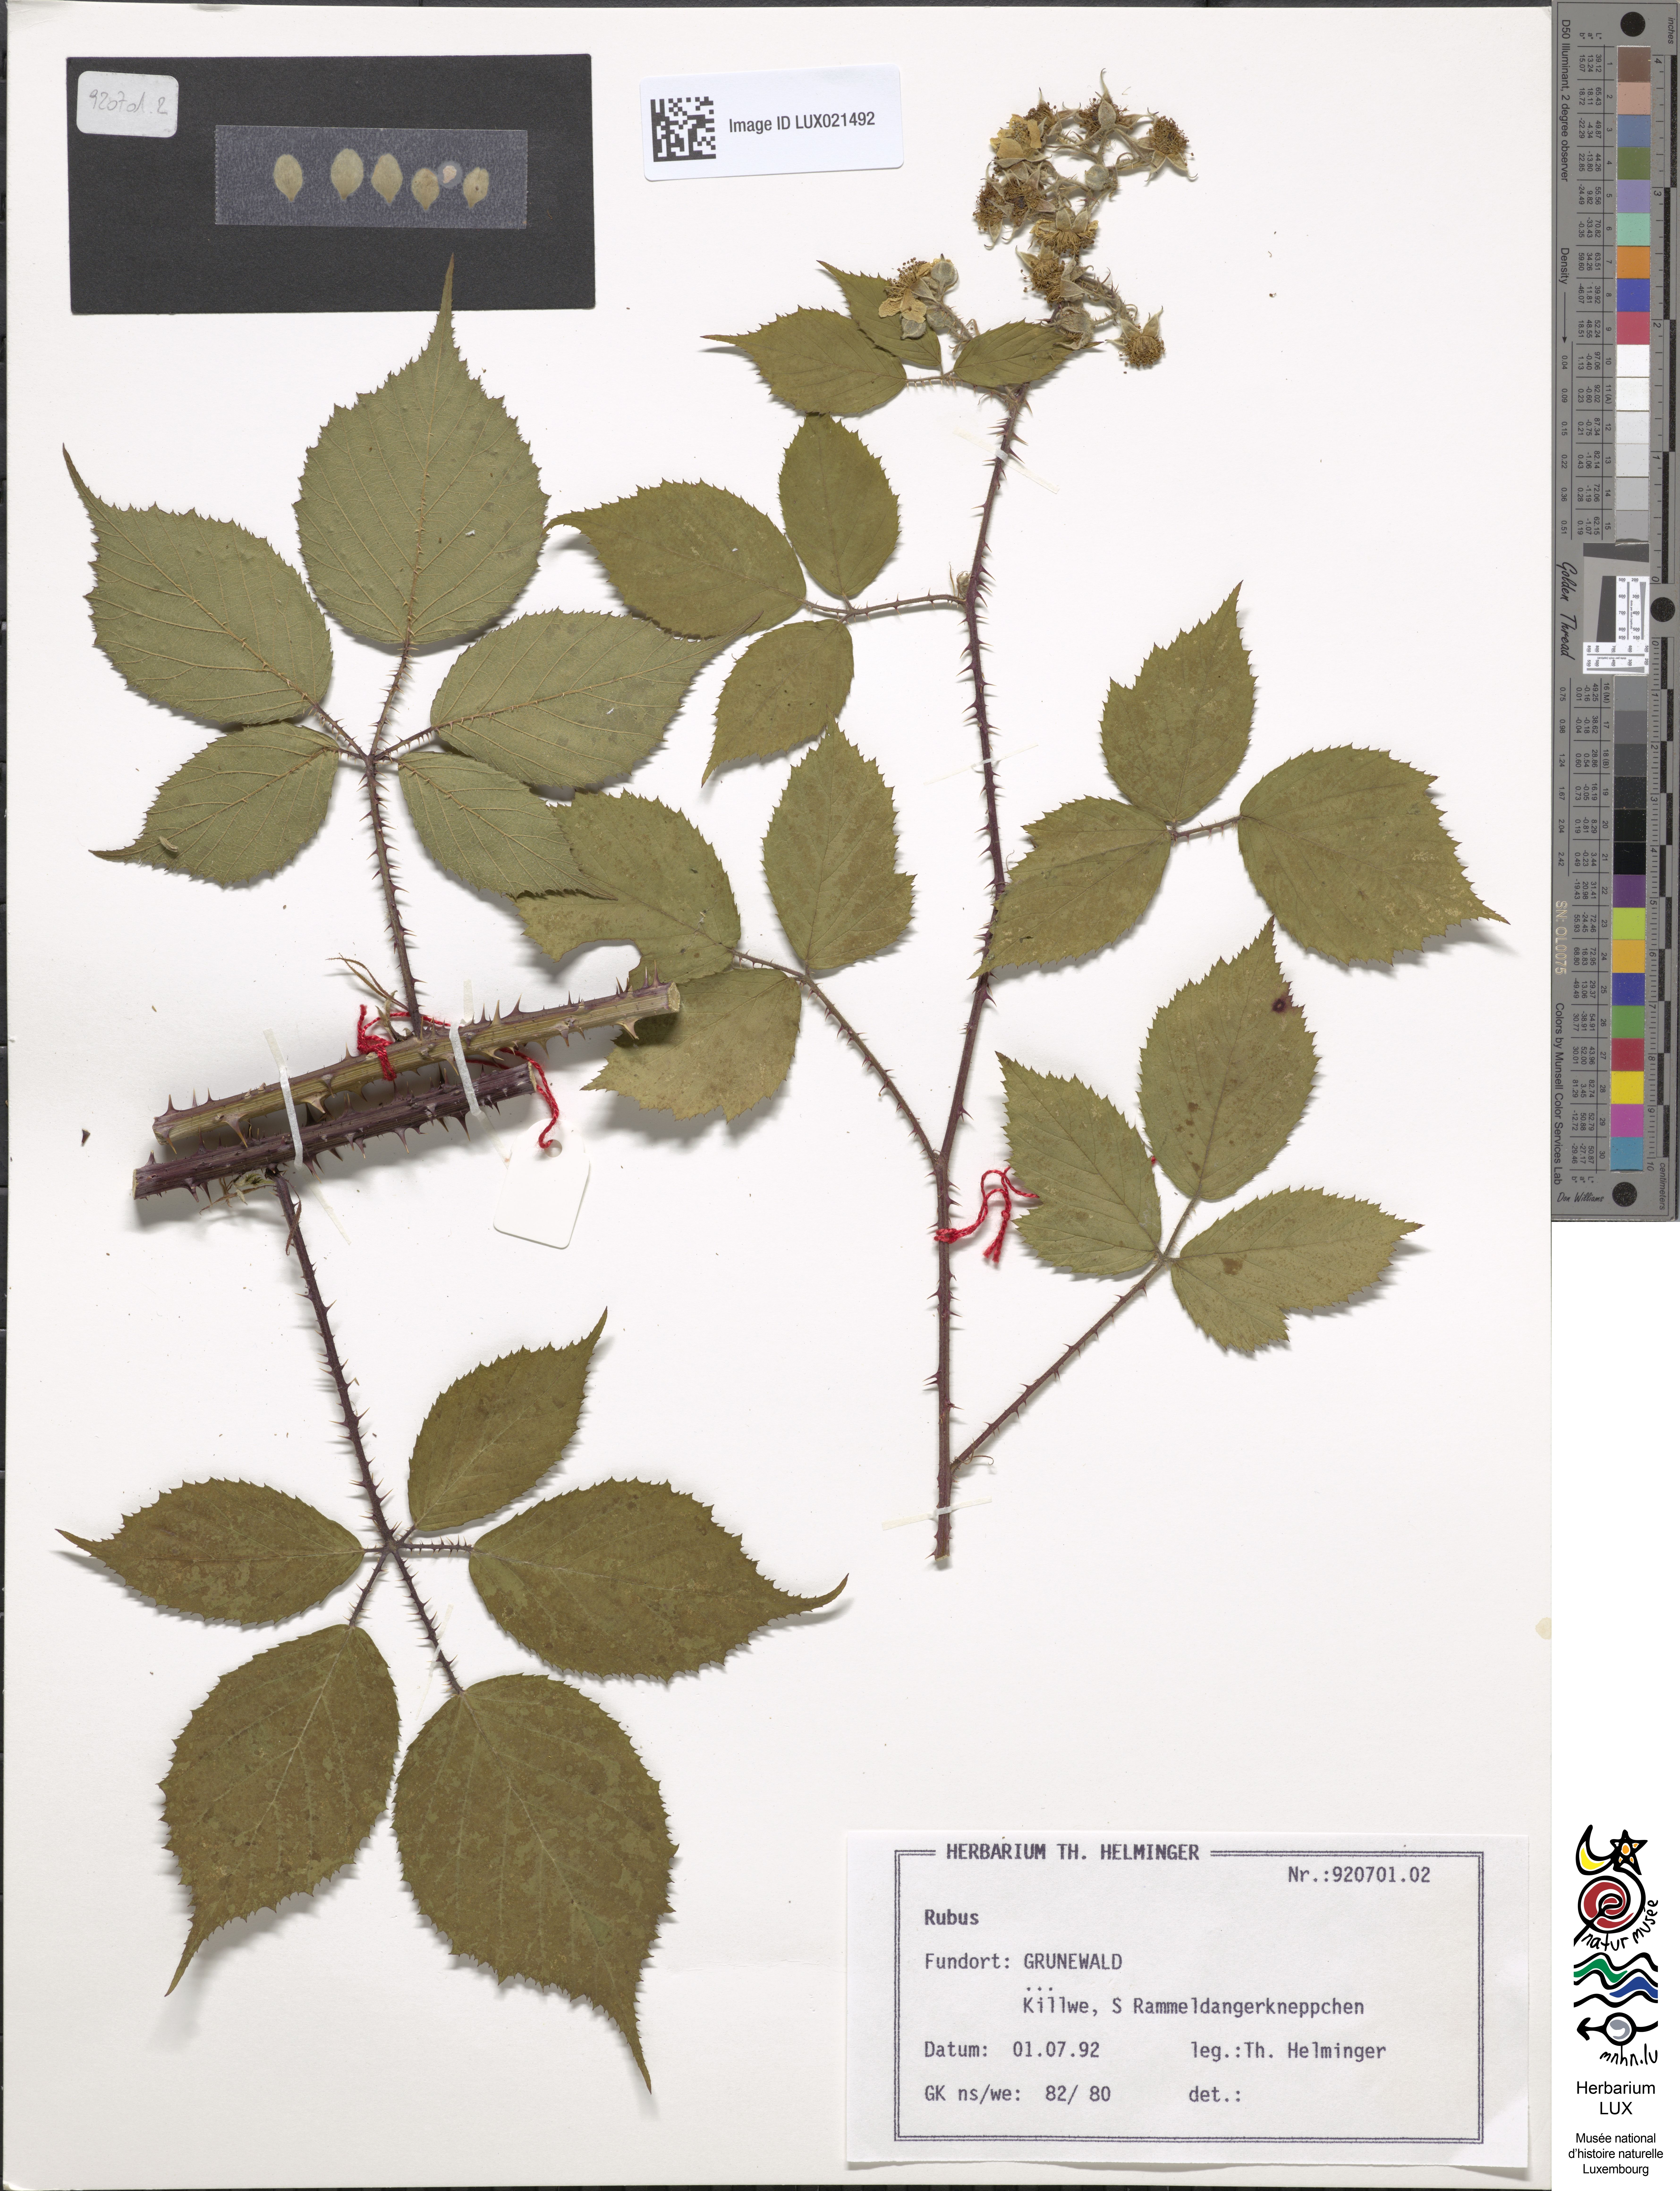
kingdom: Plantae
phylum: Tracheophyta
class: Magnoliopsida
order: Rosales
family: Rosaceae
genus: Rubus
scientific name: Rubus
